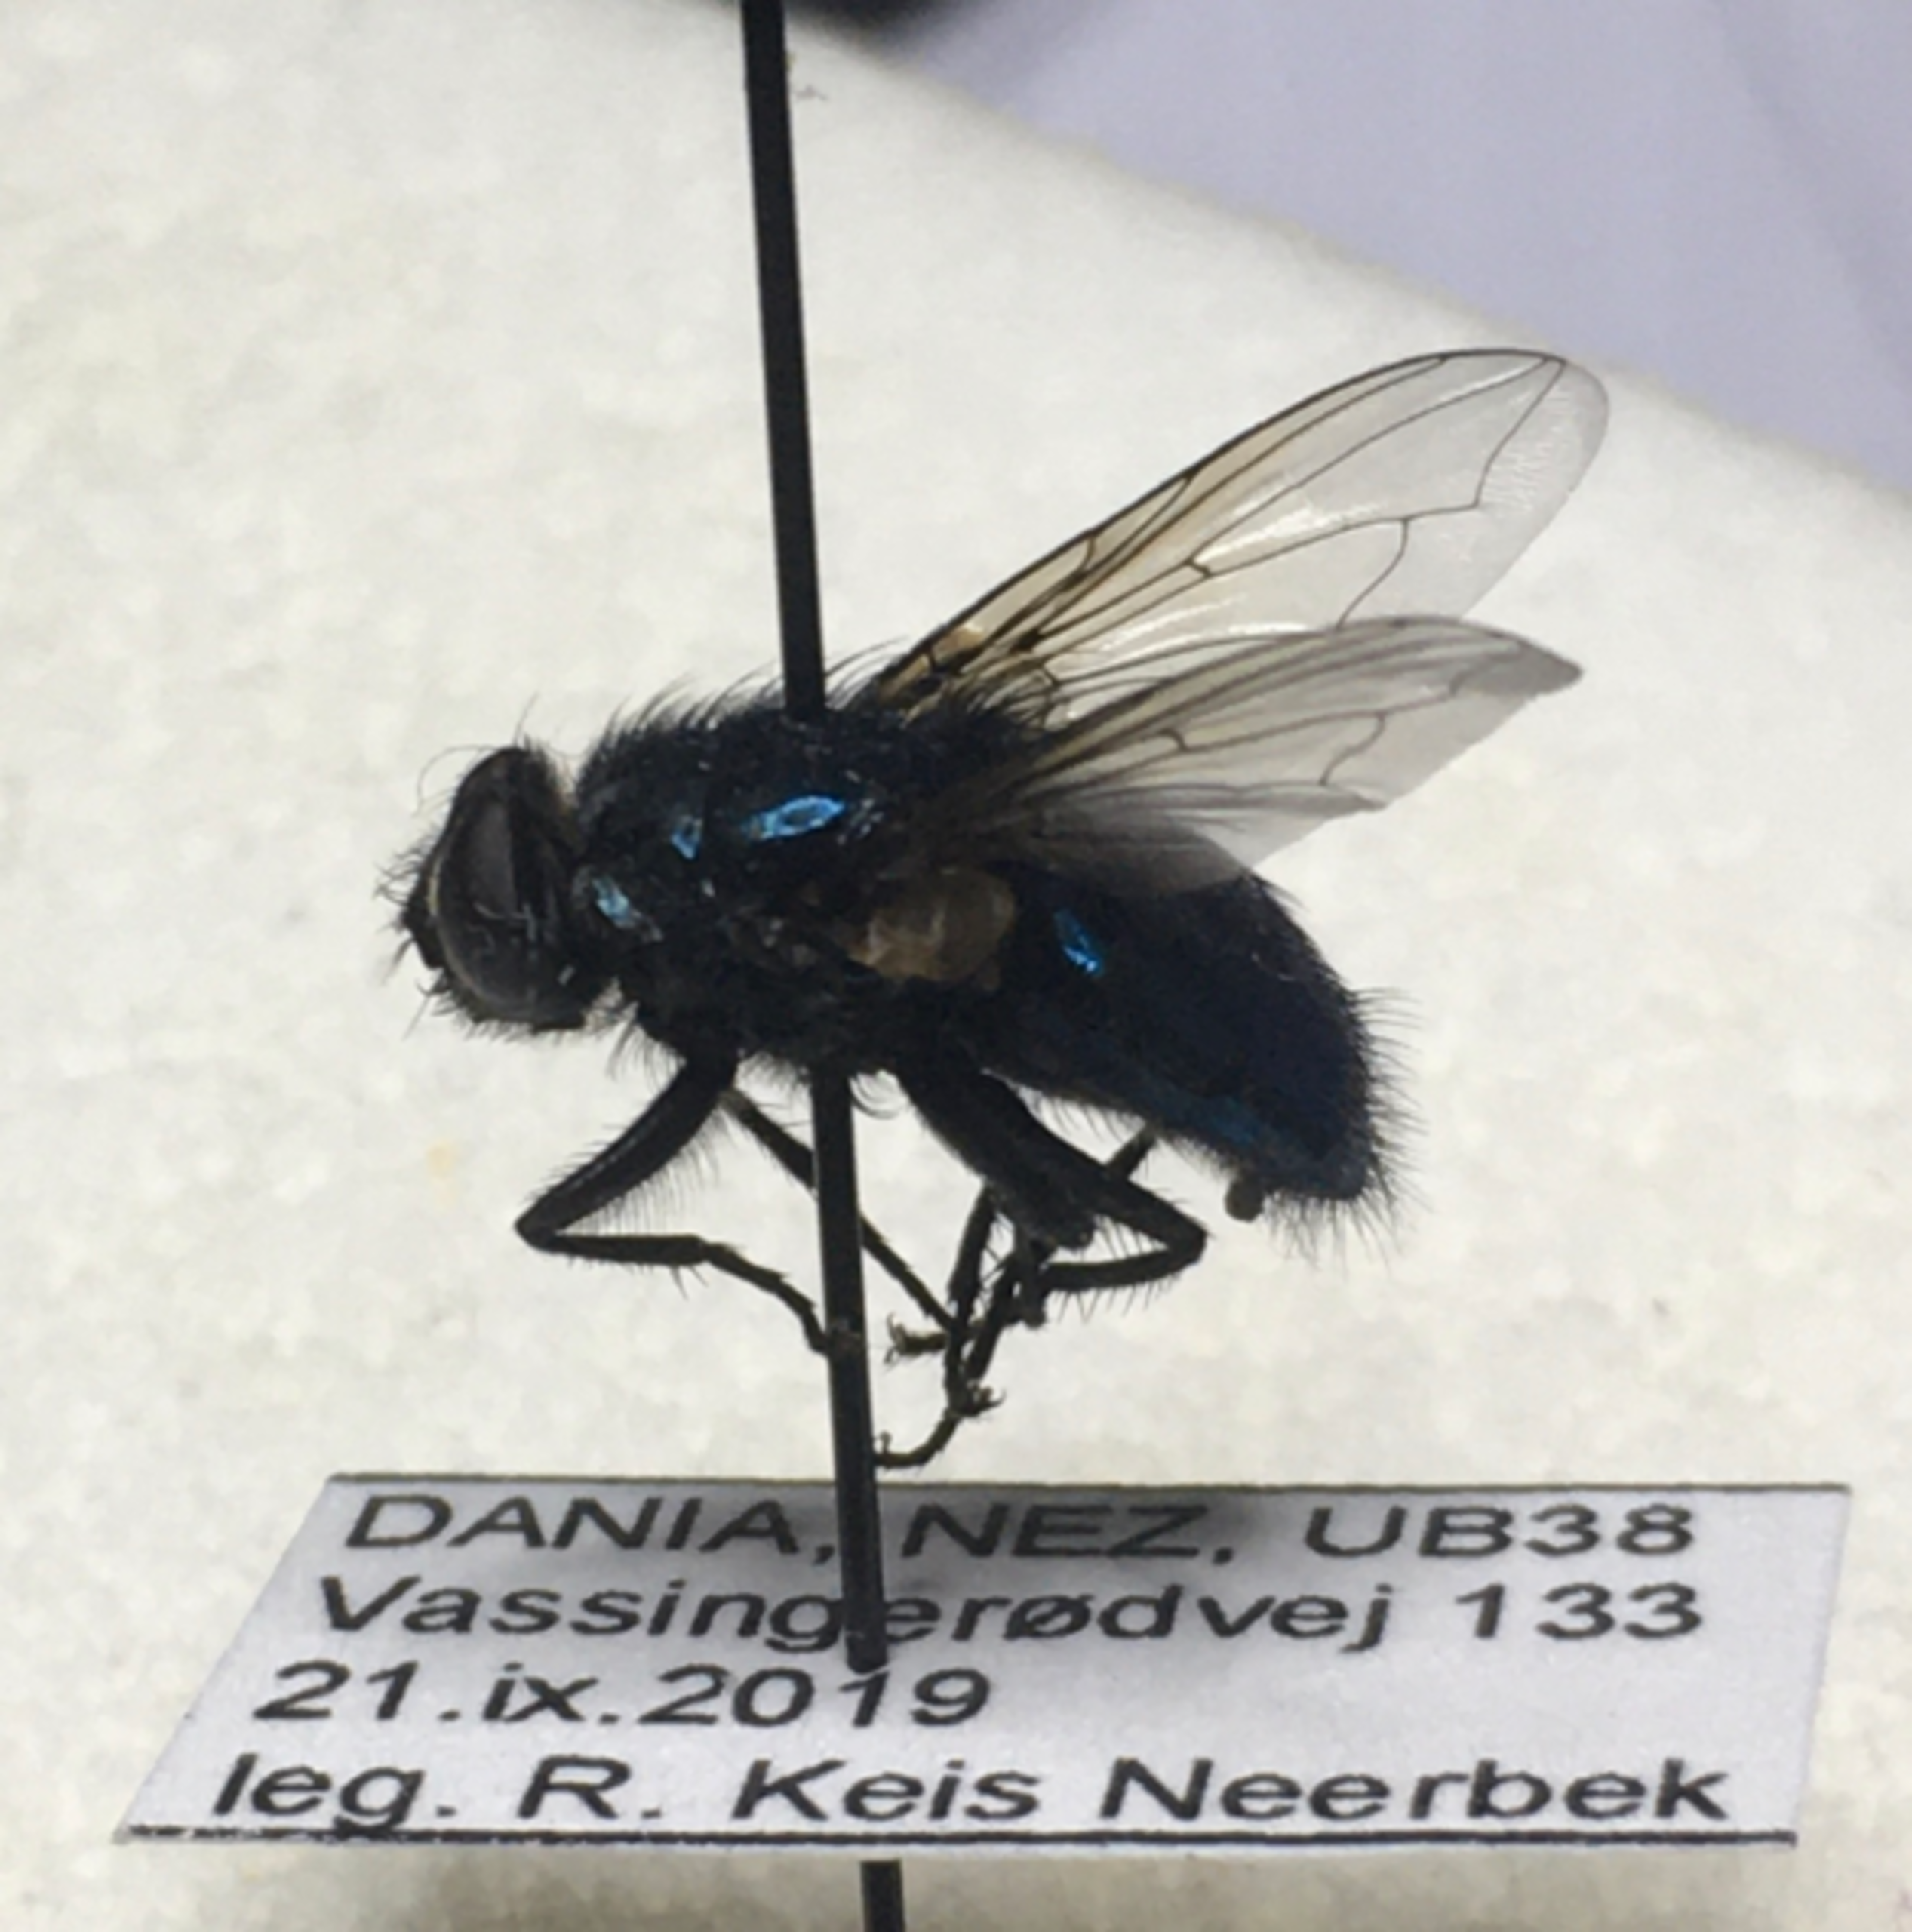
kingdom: Animalia
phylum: Arthropoda
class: Insecta
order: Diptera
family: Calliphoridae
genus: Protocalliphora
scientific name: Protocalliphora azurea
